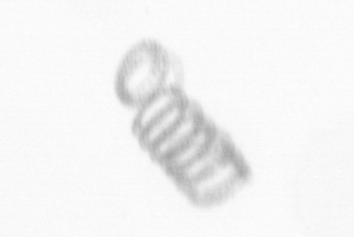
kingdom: Chromista
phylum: Ochrophyta
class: Bacillariophyceae
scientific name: Bacillariophyceae
